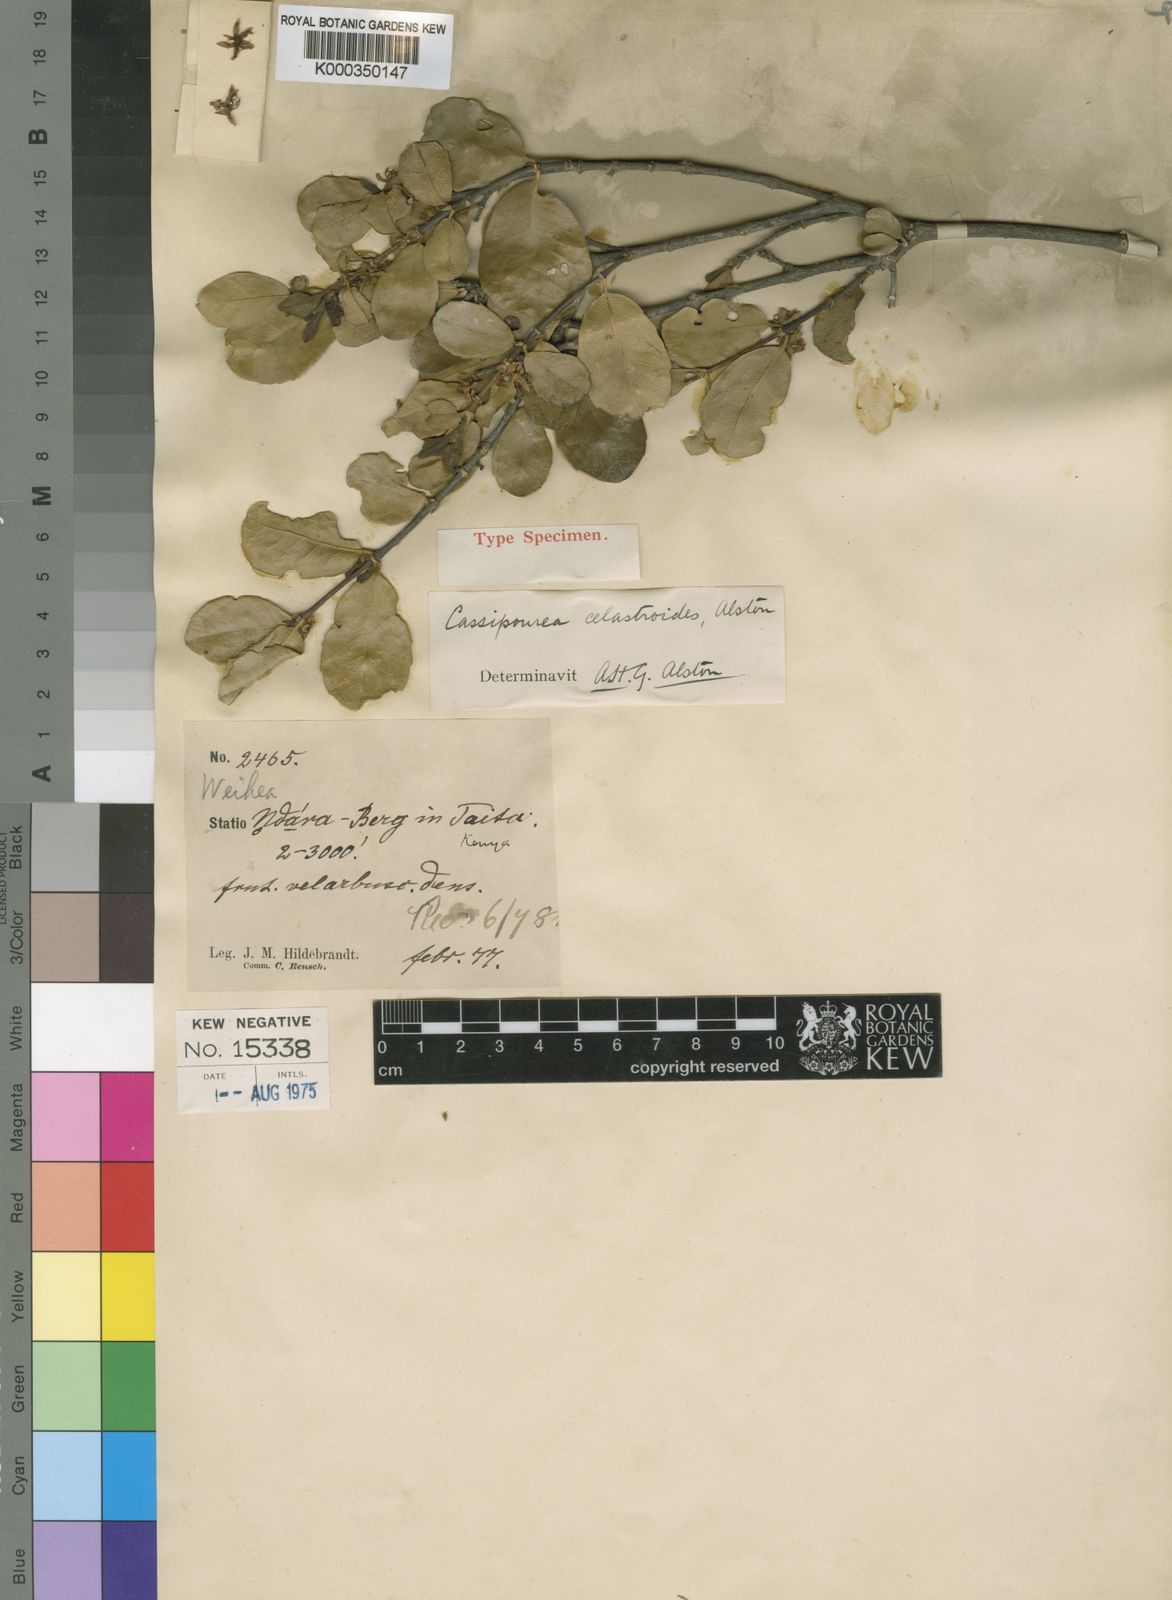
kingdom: Plantae
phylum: Tracheophyta
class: Magnoliopsida
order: Malpighiales
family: Rhizophoraceae
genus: Cassipourea
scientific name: Cassipourea celastroides
